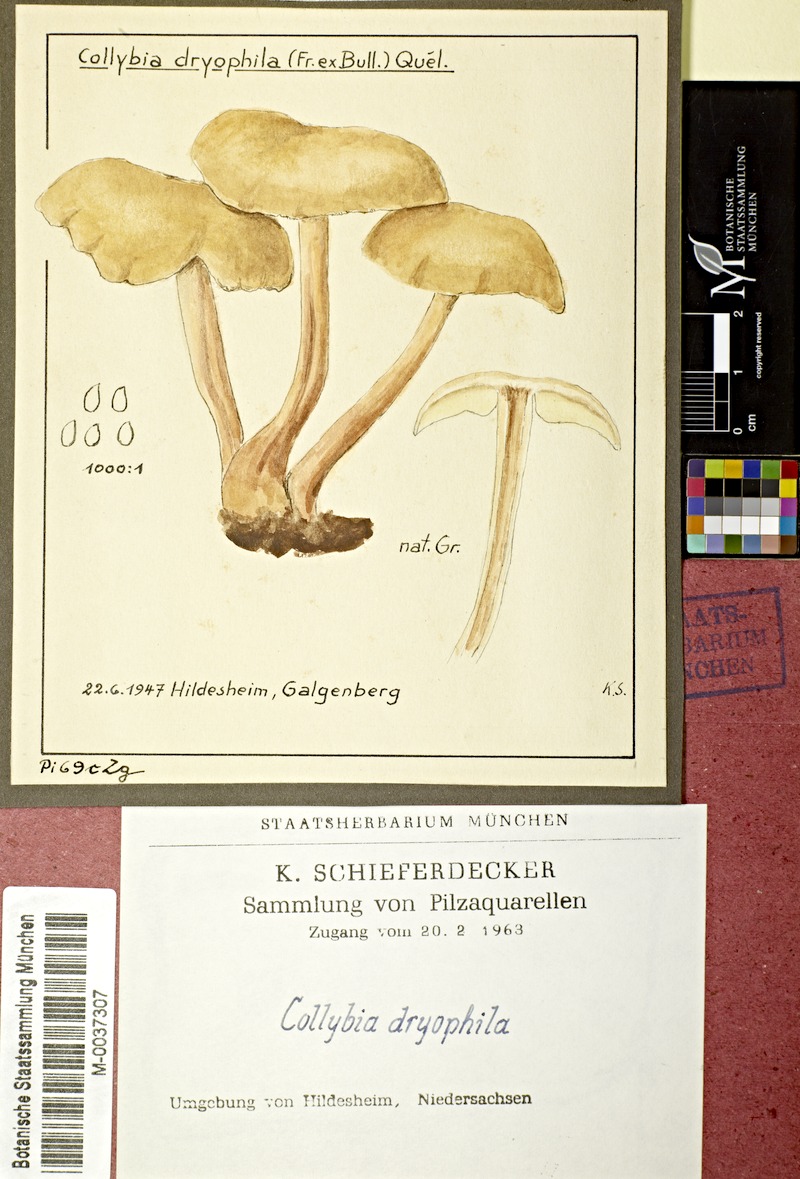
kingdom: Fungi
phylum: Basidiomycota
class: Agaricomycetes
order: Agaricales
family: Omphalotaceae
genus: Gymnopus
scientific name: Gymnopus dryophilus
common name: Penny top
